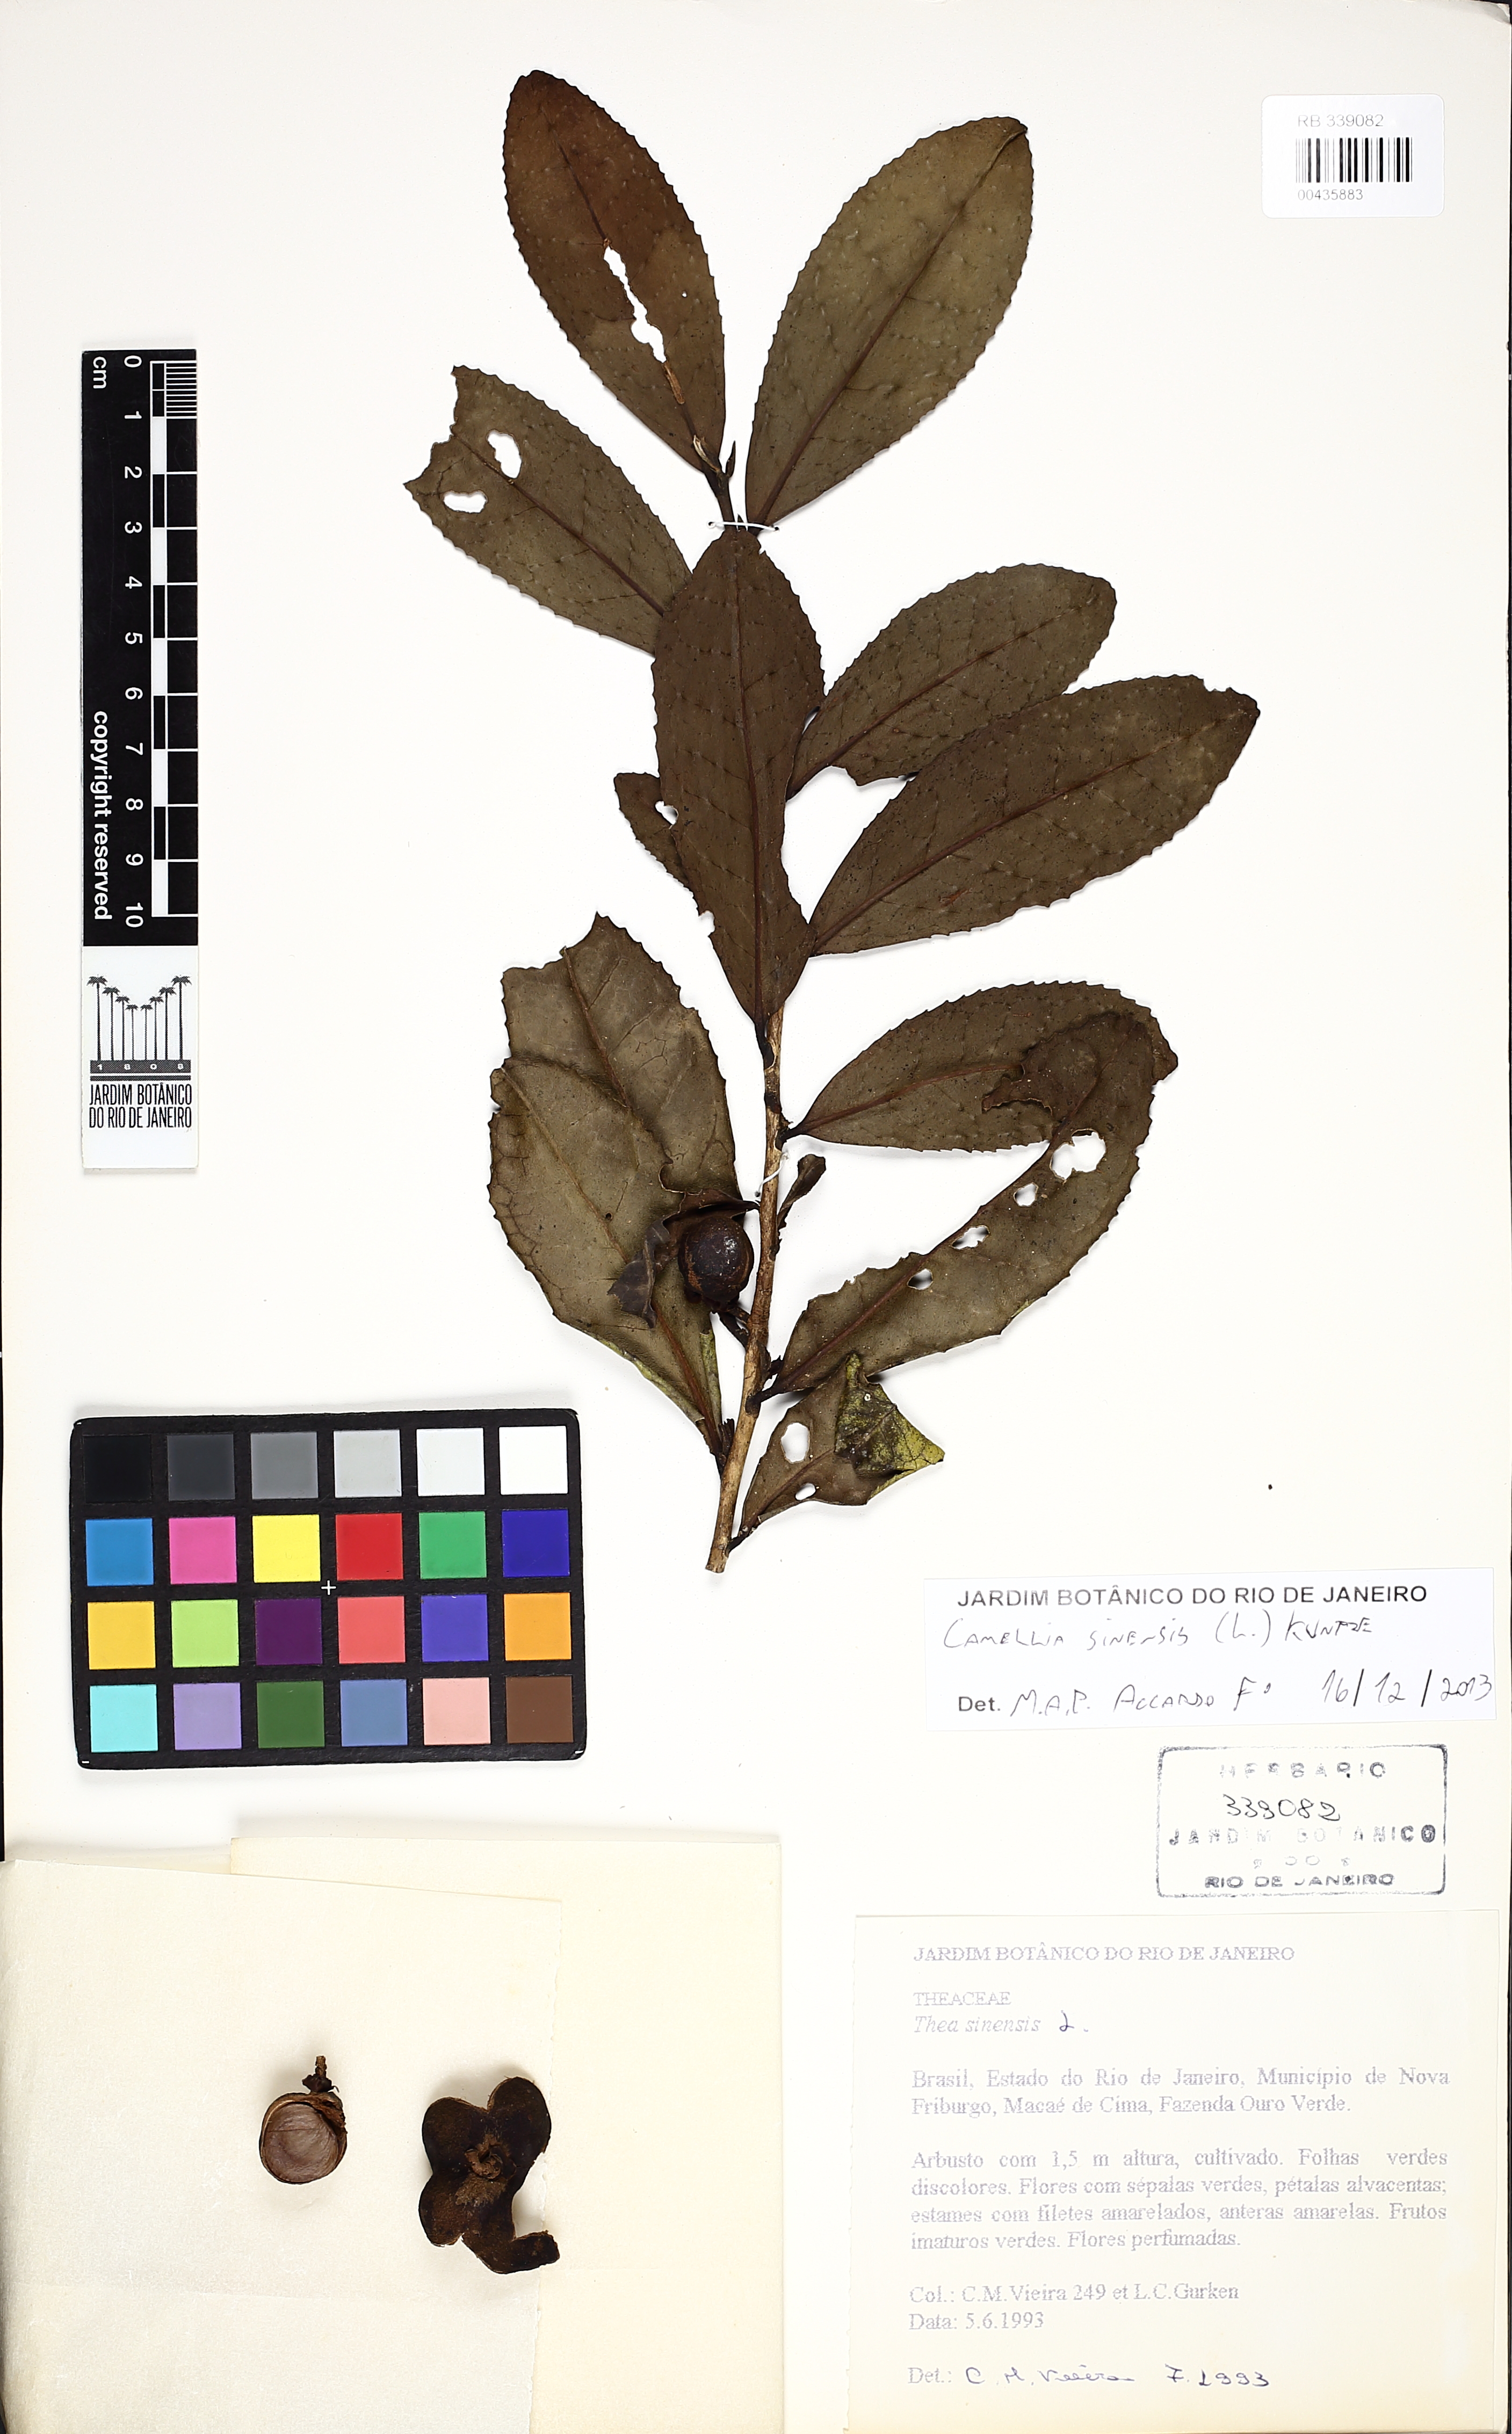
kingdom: Plantae
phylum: Tracheophyta
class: Magnoliopsida
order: Ericales
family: Theaceae
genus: Camellia
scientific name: Camellia sinensis
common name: Tea
